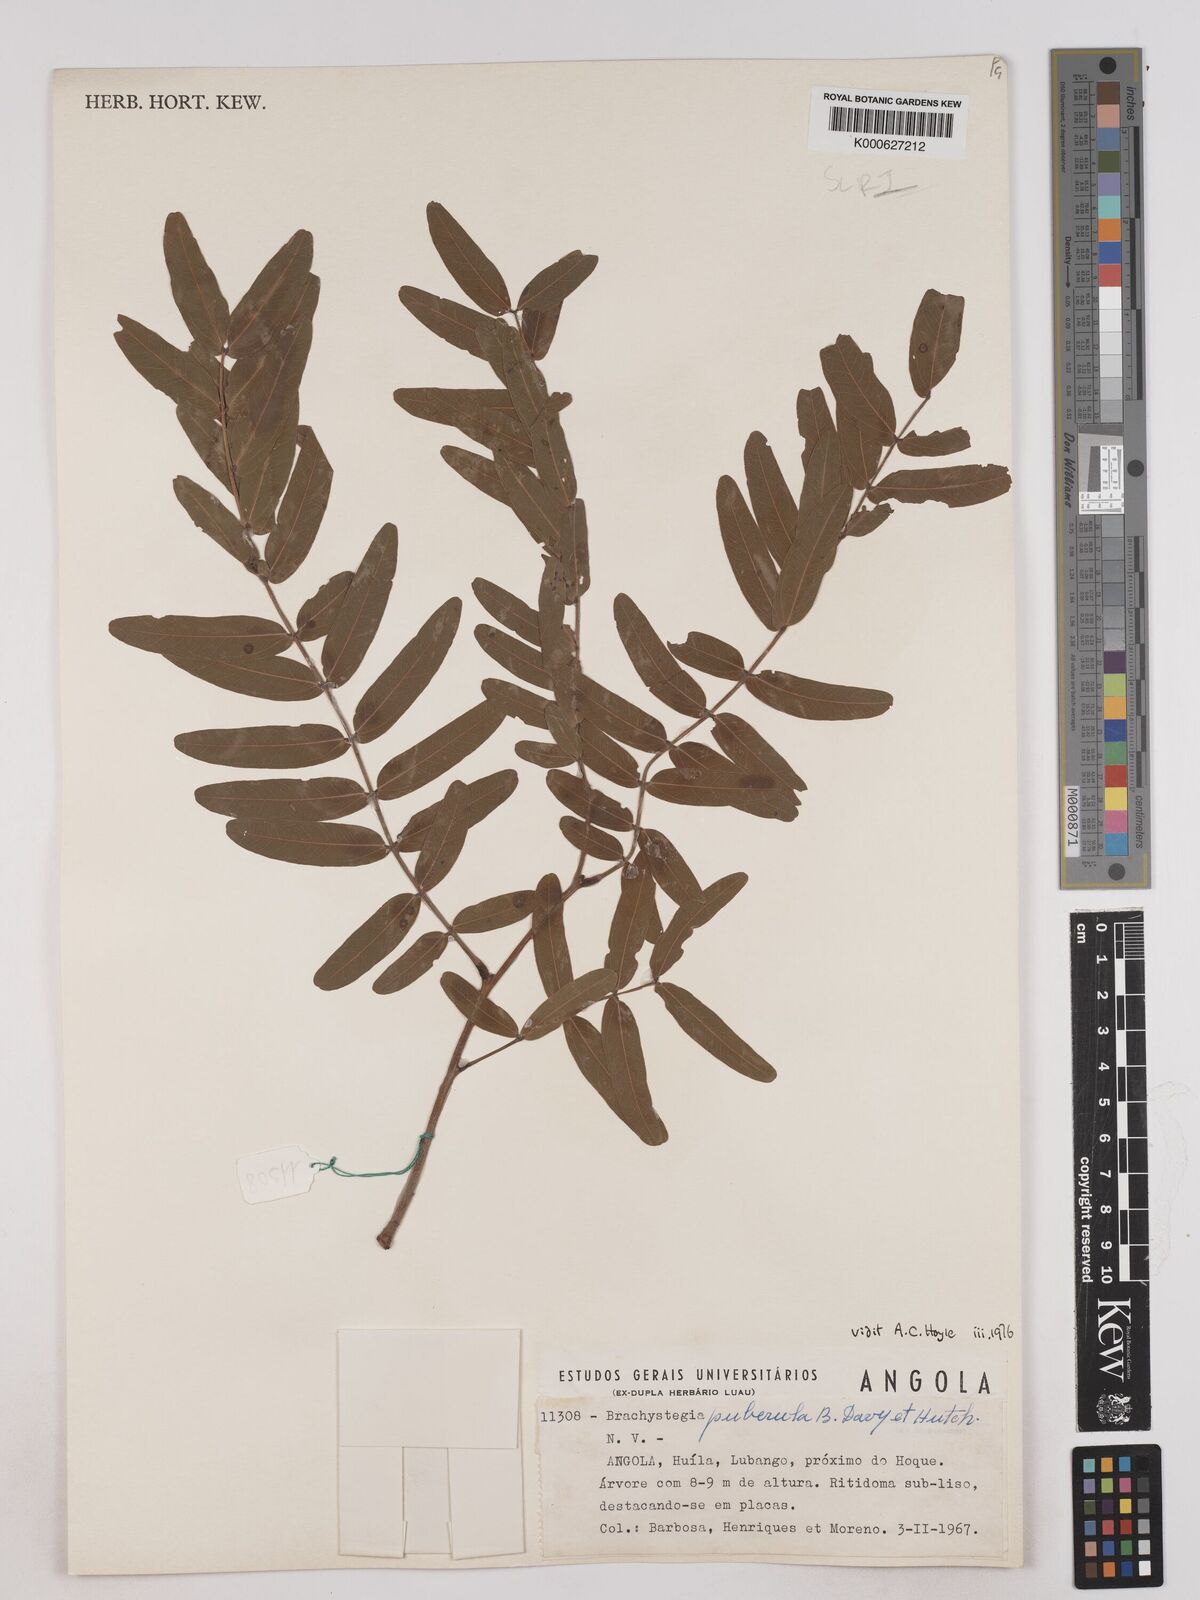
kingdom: Plantae
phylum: Tracheophyta
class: Magnoliopsida
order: Fabales
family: Fabaceae
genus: Brachystegia
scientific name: Brachystegia puberula
